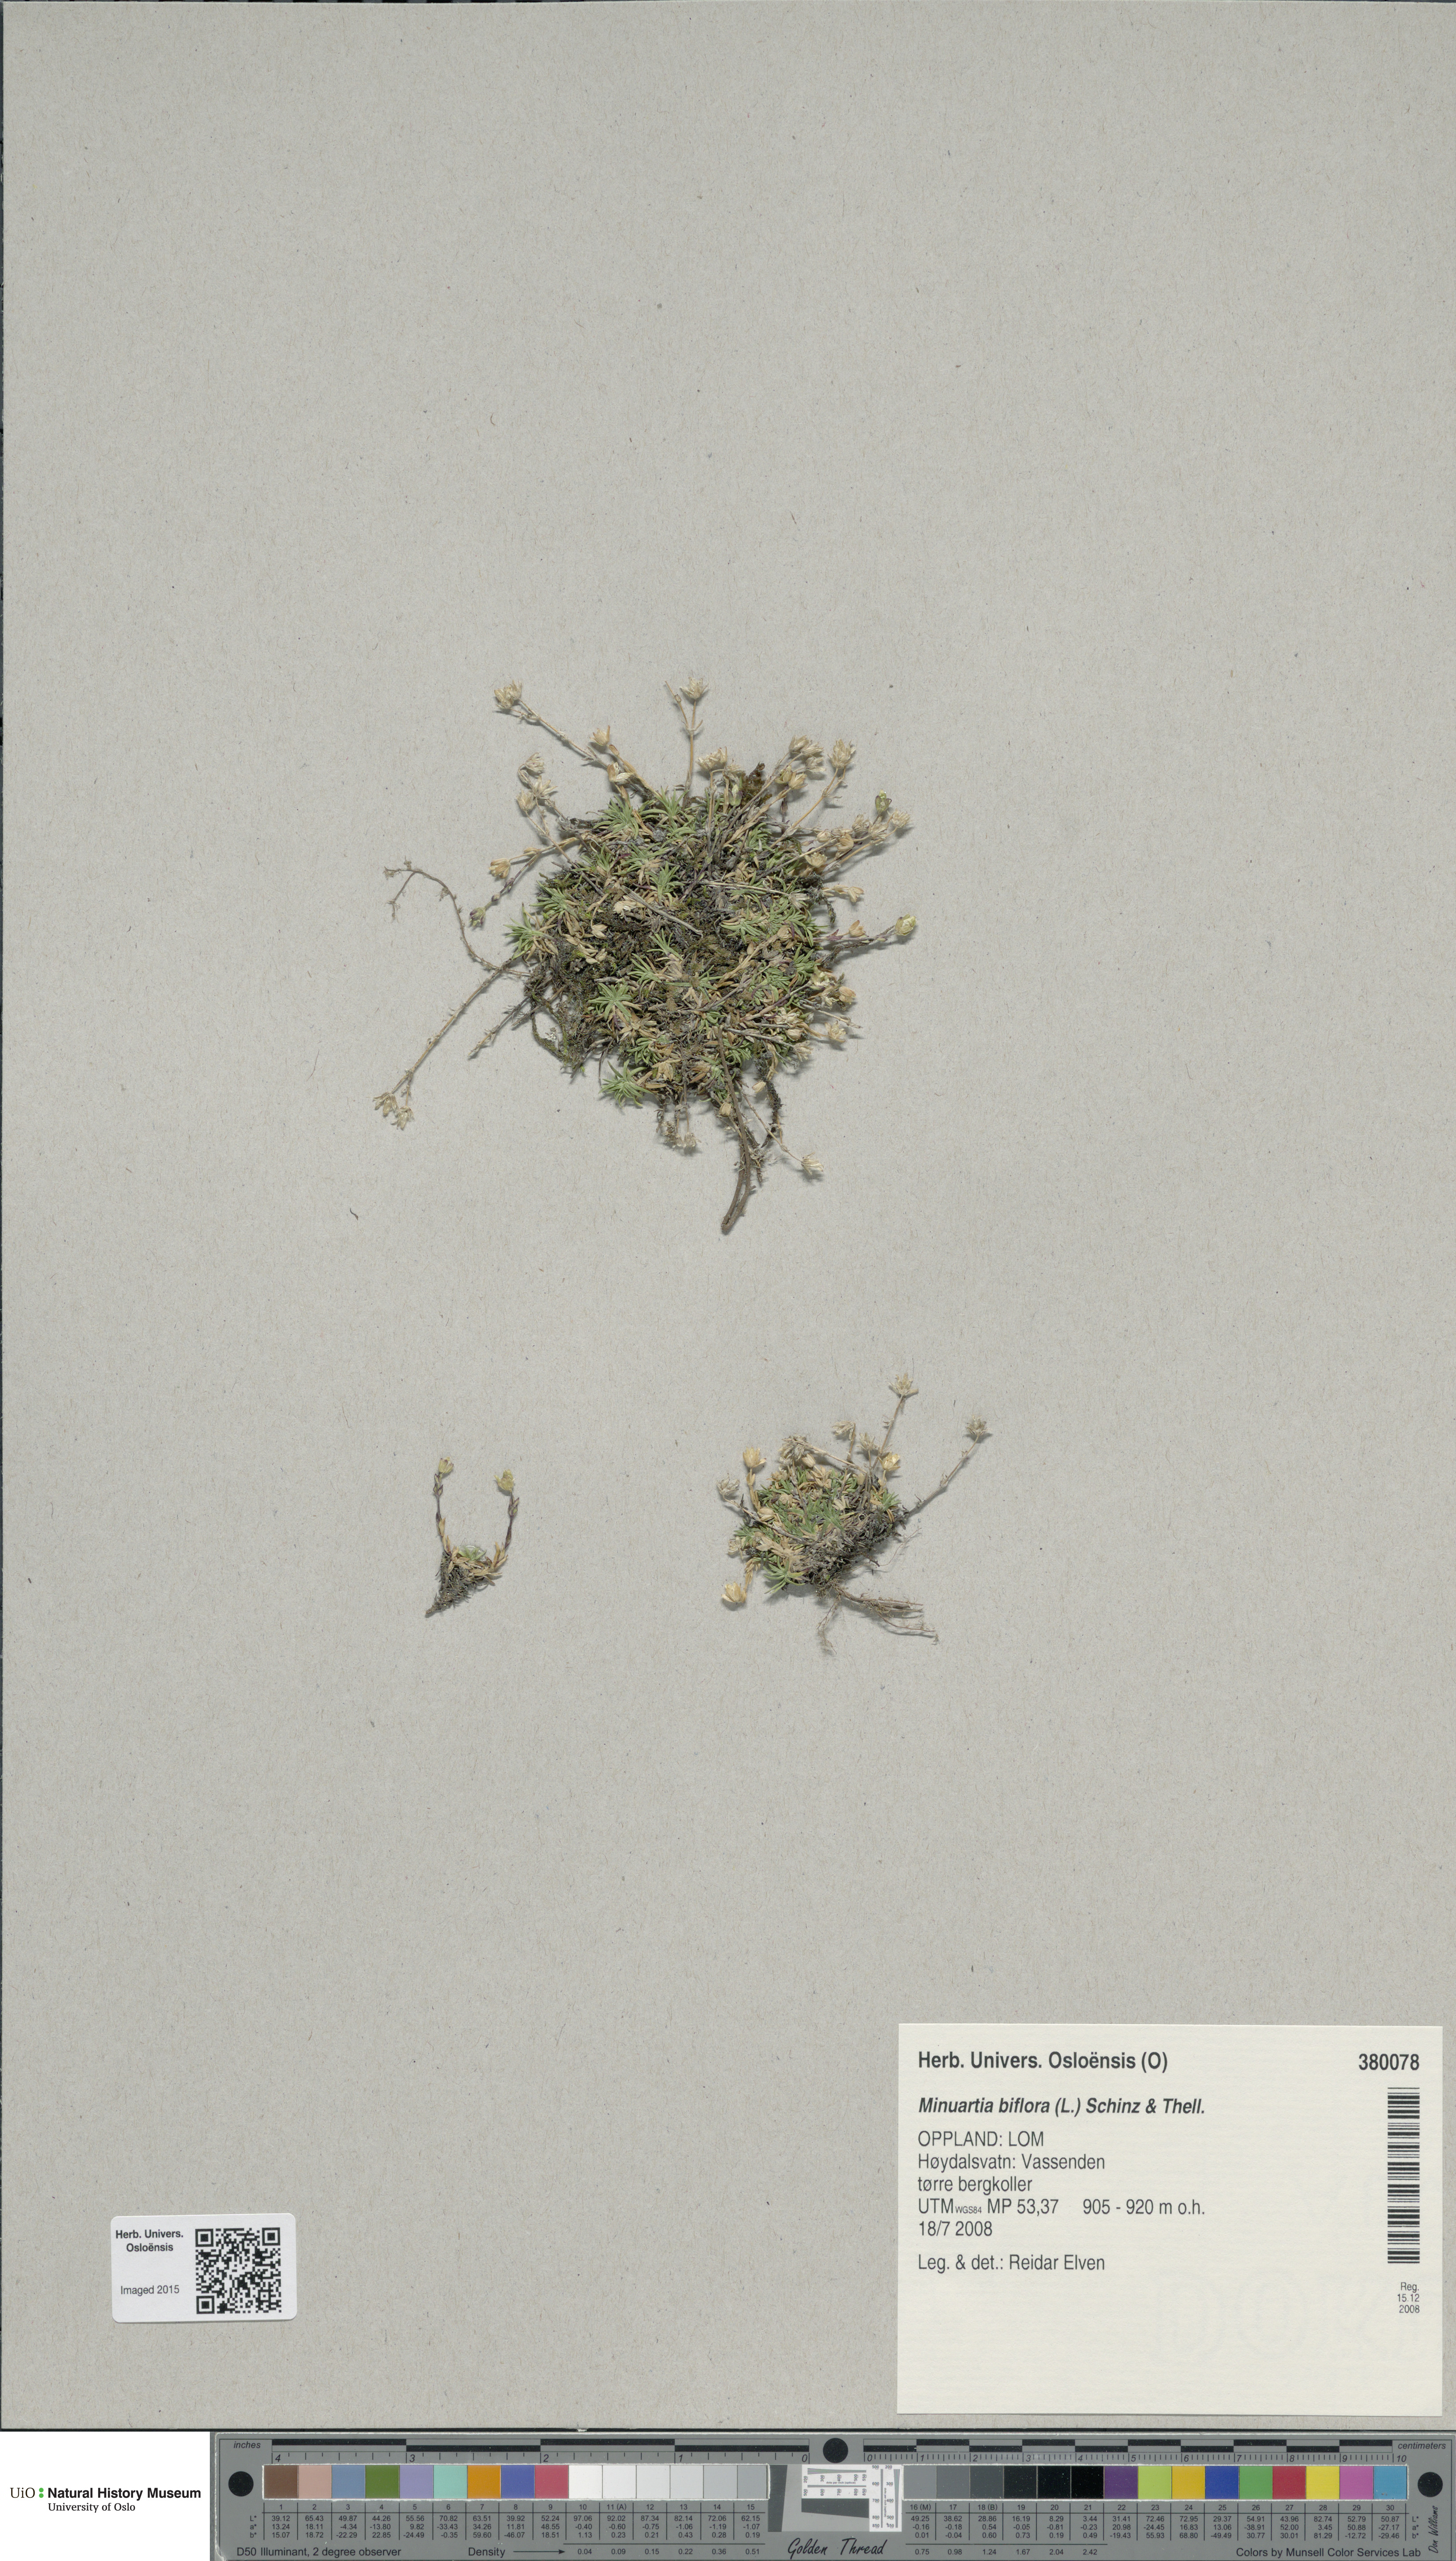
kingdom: Plantae
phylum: Tracheophyta
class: Magnoliopsida
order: Caryophyllales
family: Caryophyllaceae
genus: Cherleria
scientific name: Cherleria biflora
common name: Mountain sandwort
